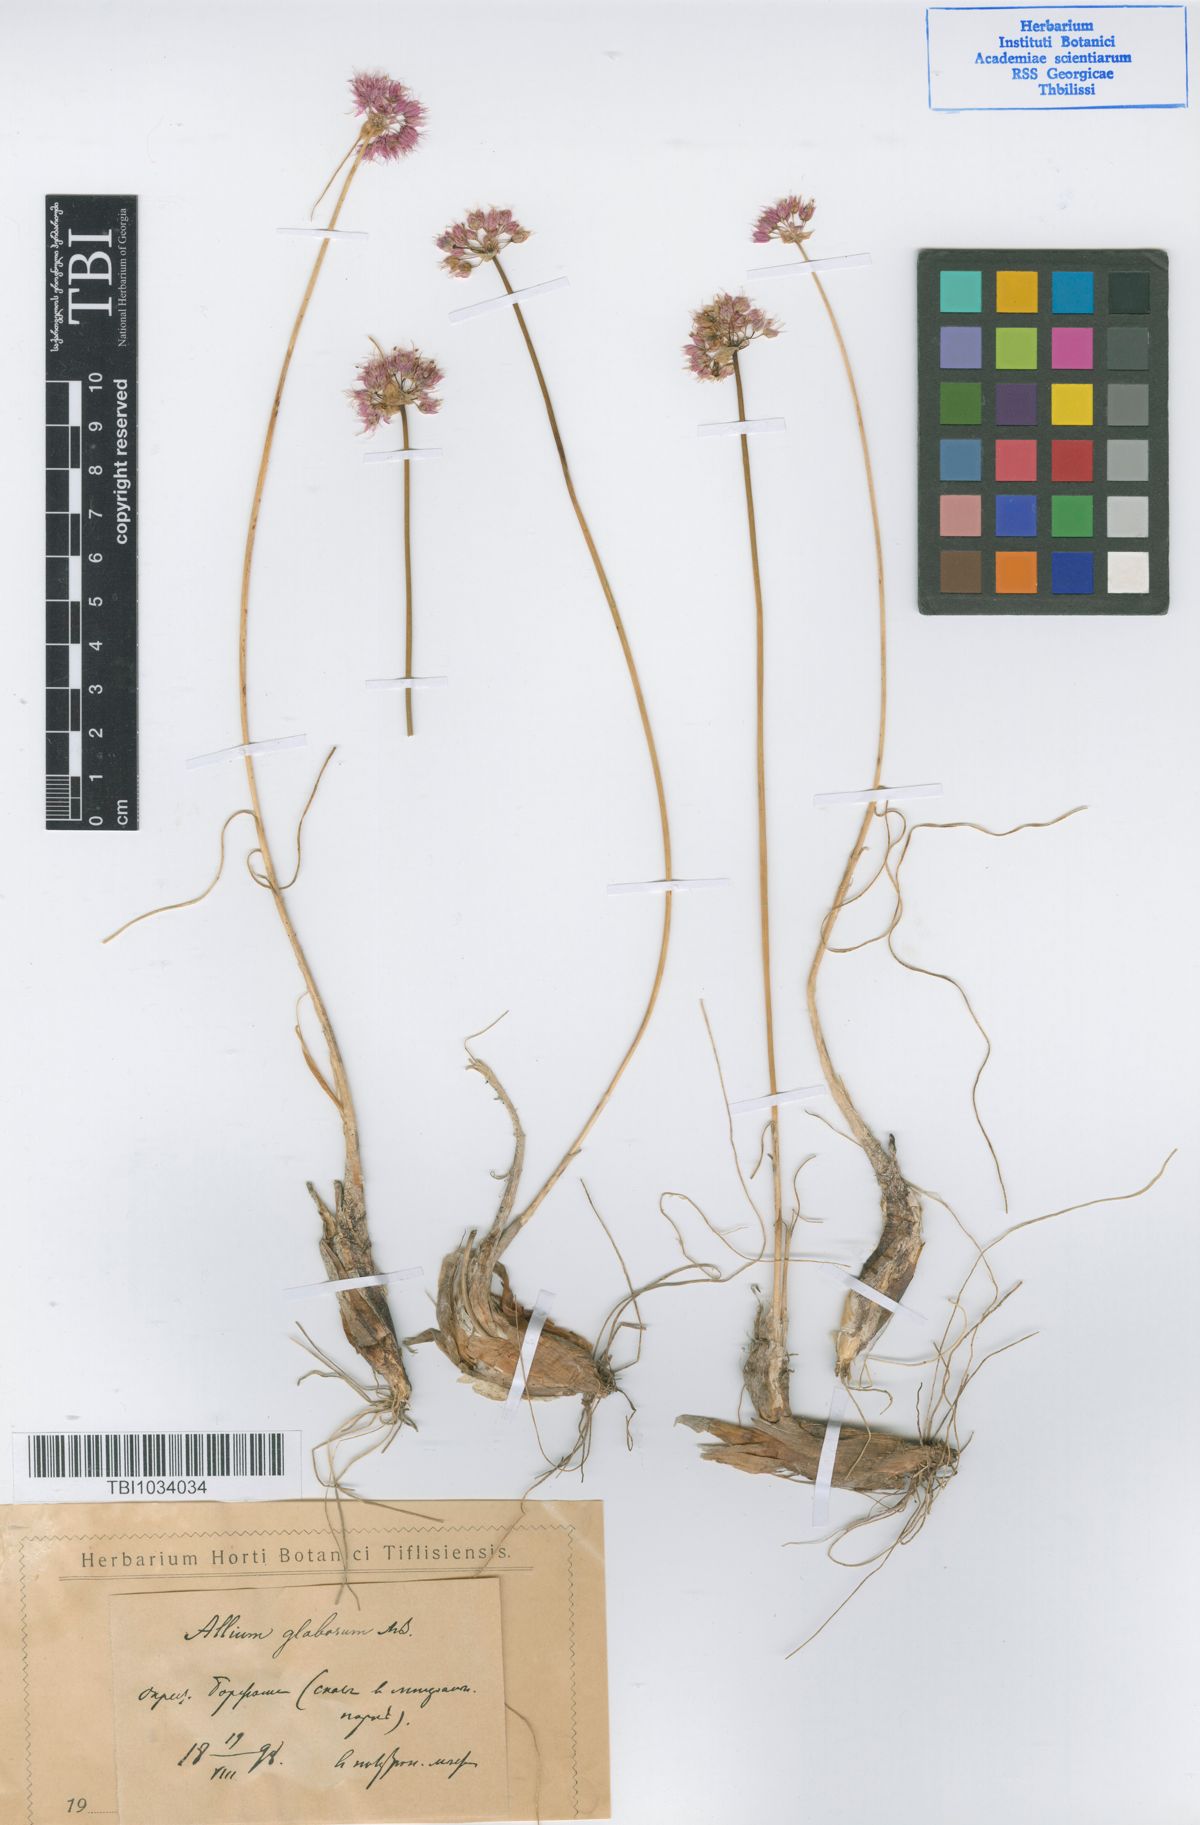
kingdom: Plantae
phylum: Tracheophyta
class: Liliopsida
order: Asparagales
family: Amaryllidaceae
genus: Allium
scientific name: Allium saxatile
